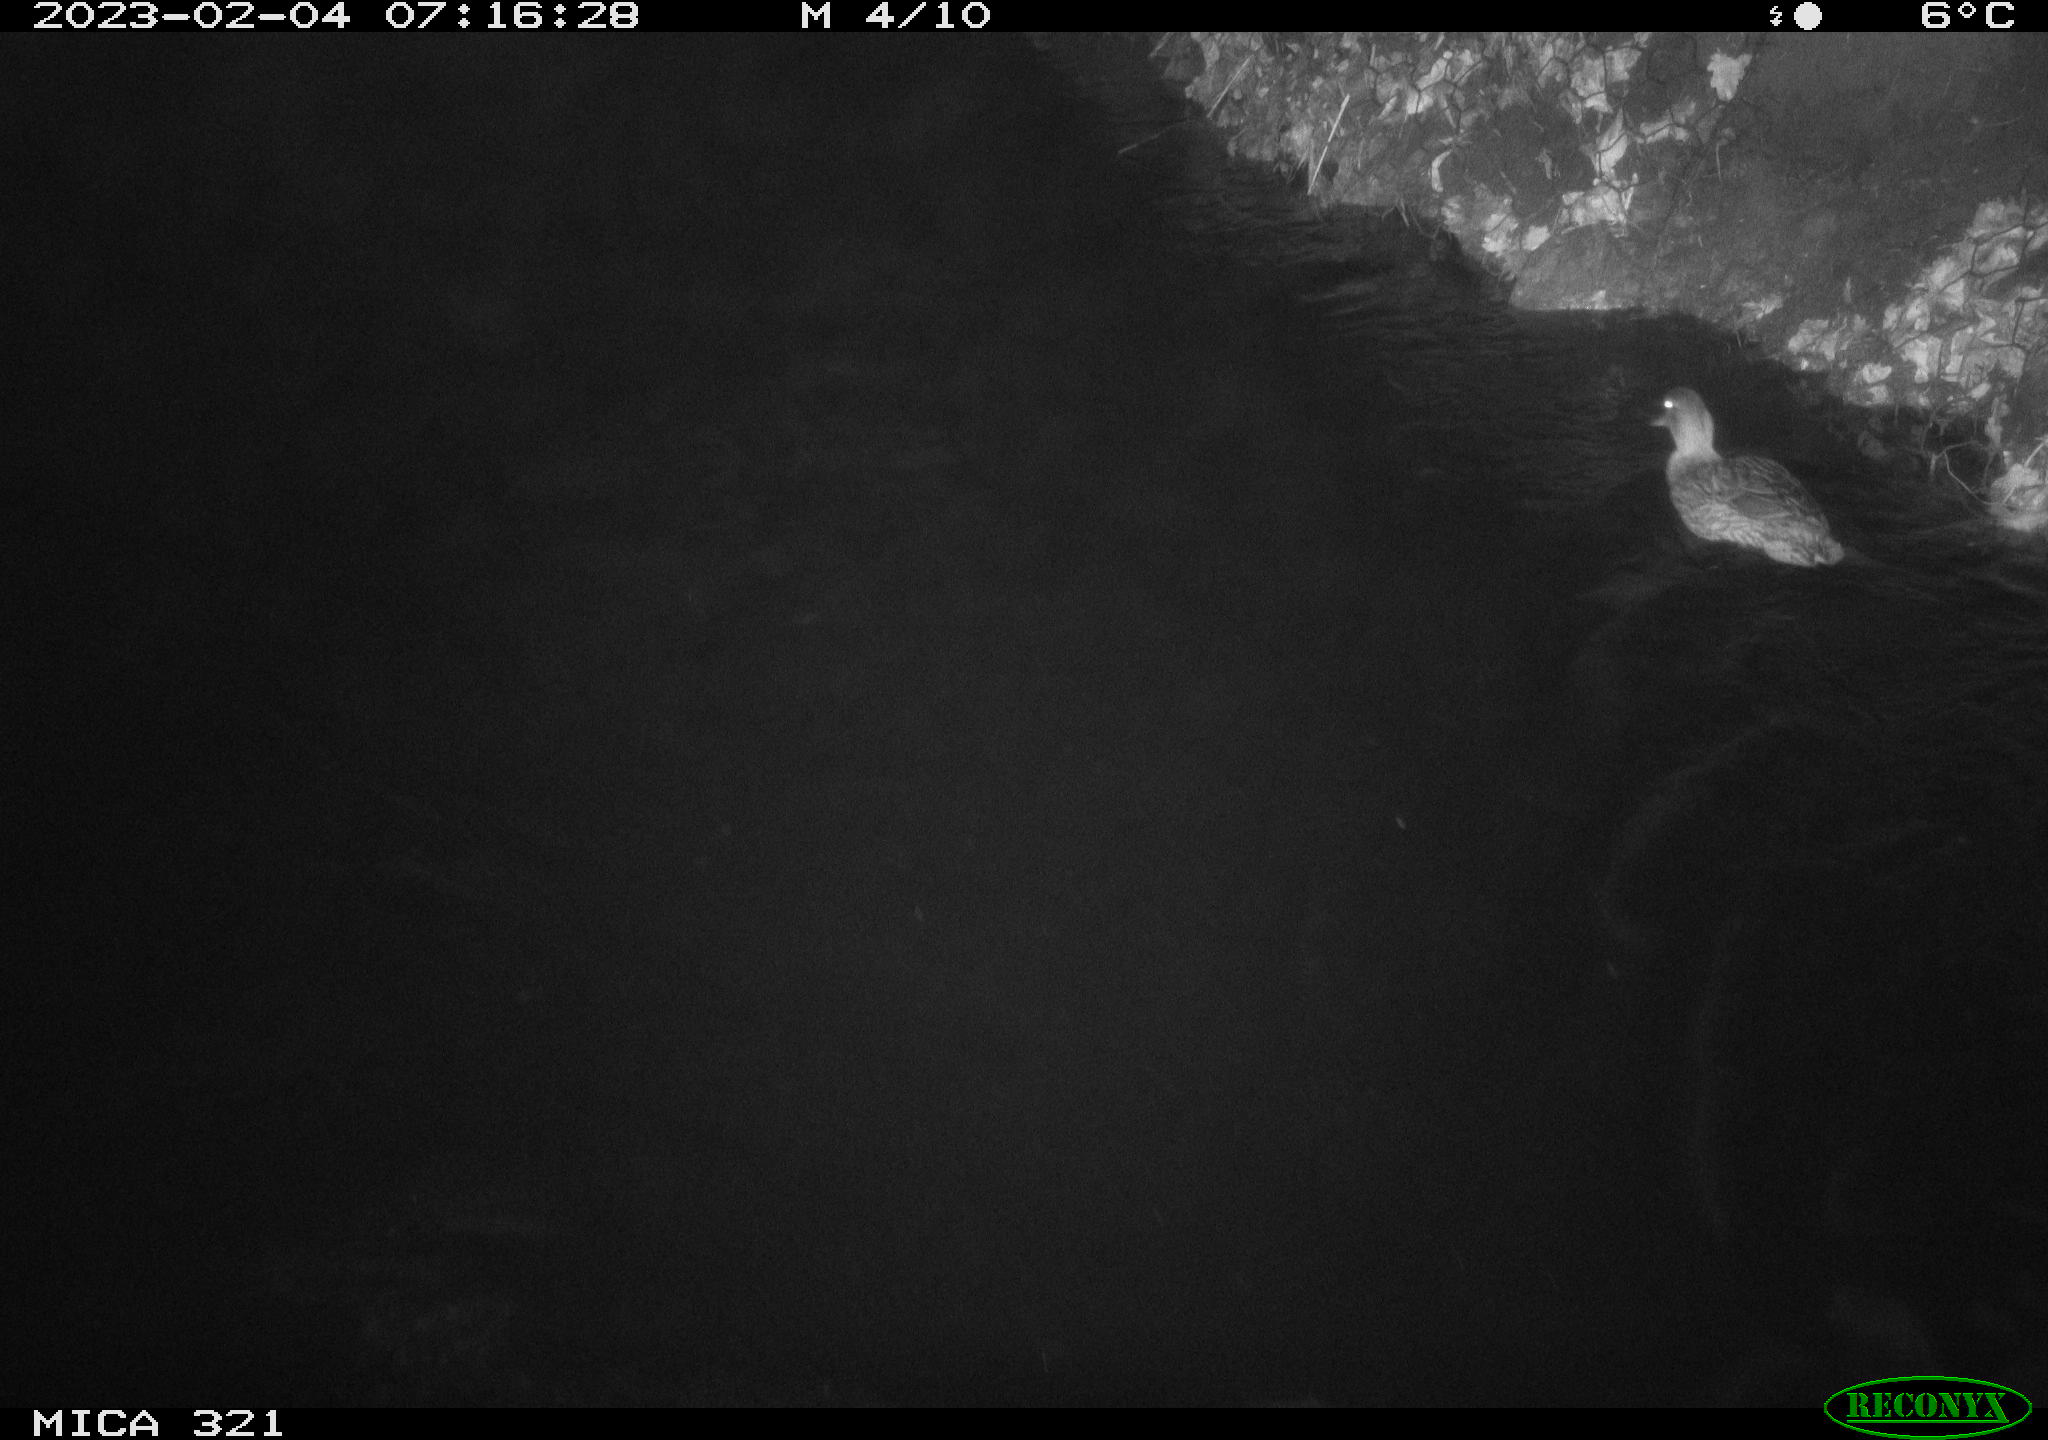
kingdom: Animalia
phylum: Chordata
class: Aves
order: Anseriformes
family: Anatidae
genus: Anas
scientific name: Anas
